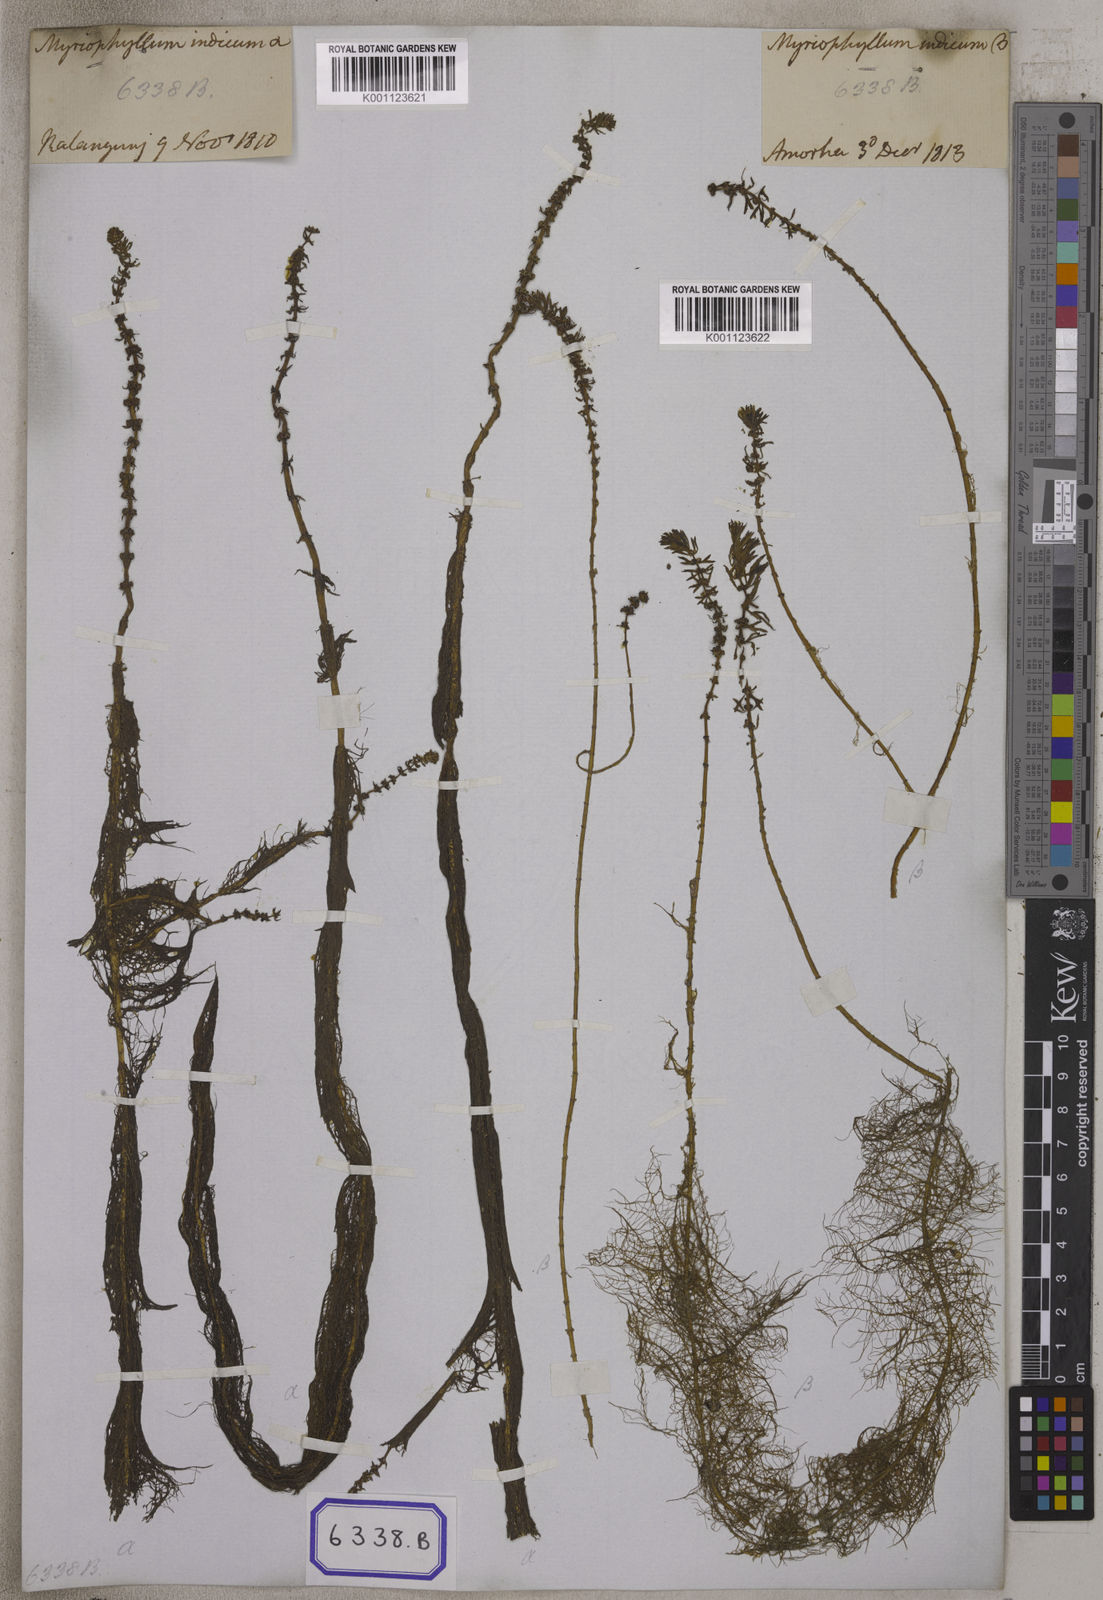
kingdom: Plantae
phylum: Tracheophyta
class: Magnoliopsida
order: Saxifragales
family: Haloragaceae
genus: Myriophyllum
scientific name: Myriophyllum indicum
